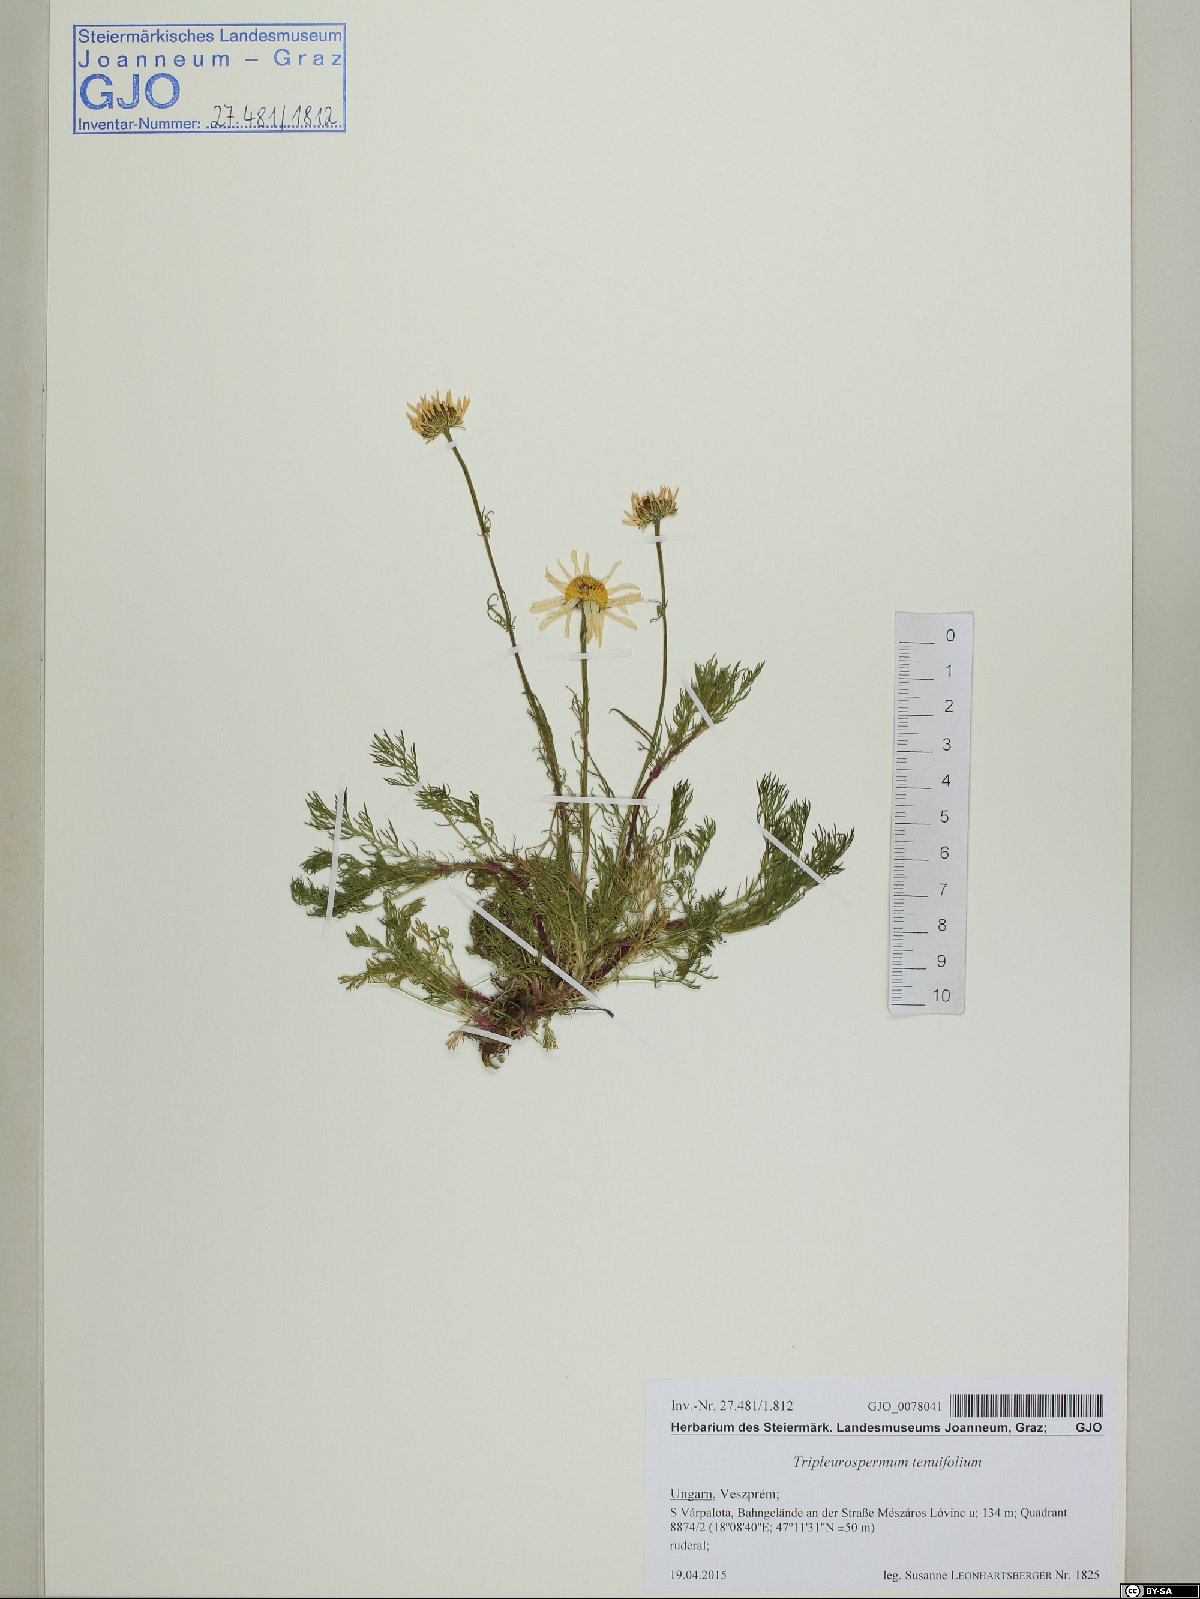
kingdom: Plantae
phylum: Tracheophyta
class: Magnoliopsida
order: Asterales
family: Asteraceae
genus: Tripleurospermum
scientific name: Tripleurospermum tenuifolium
